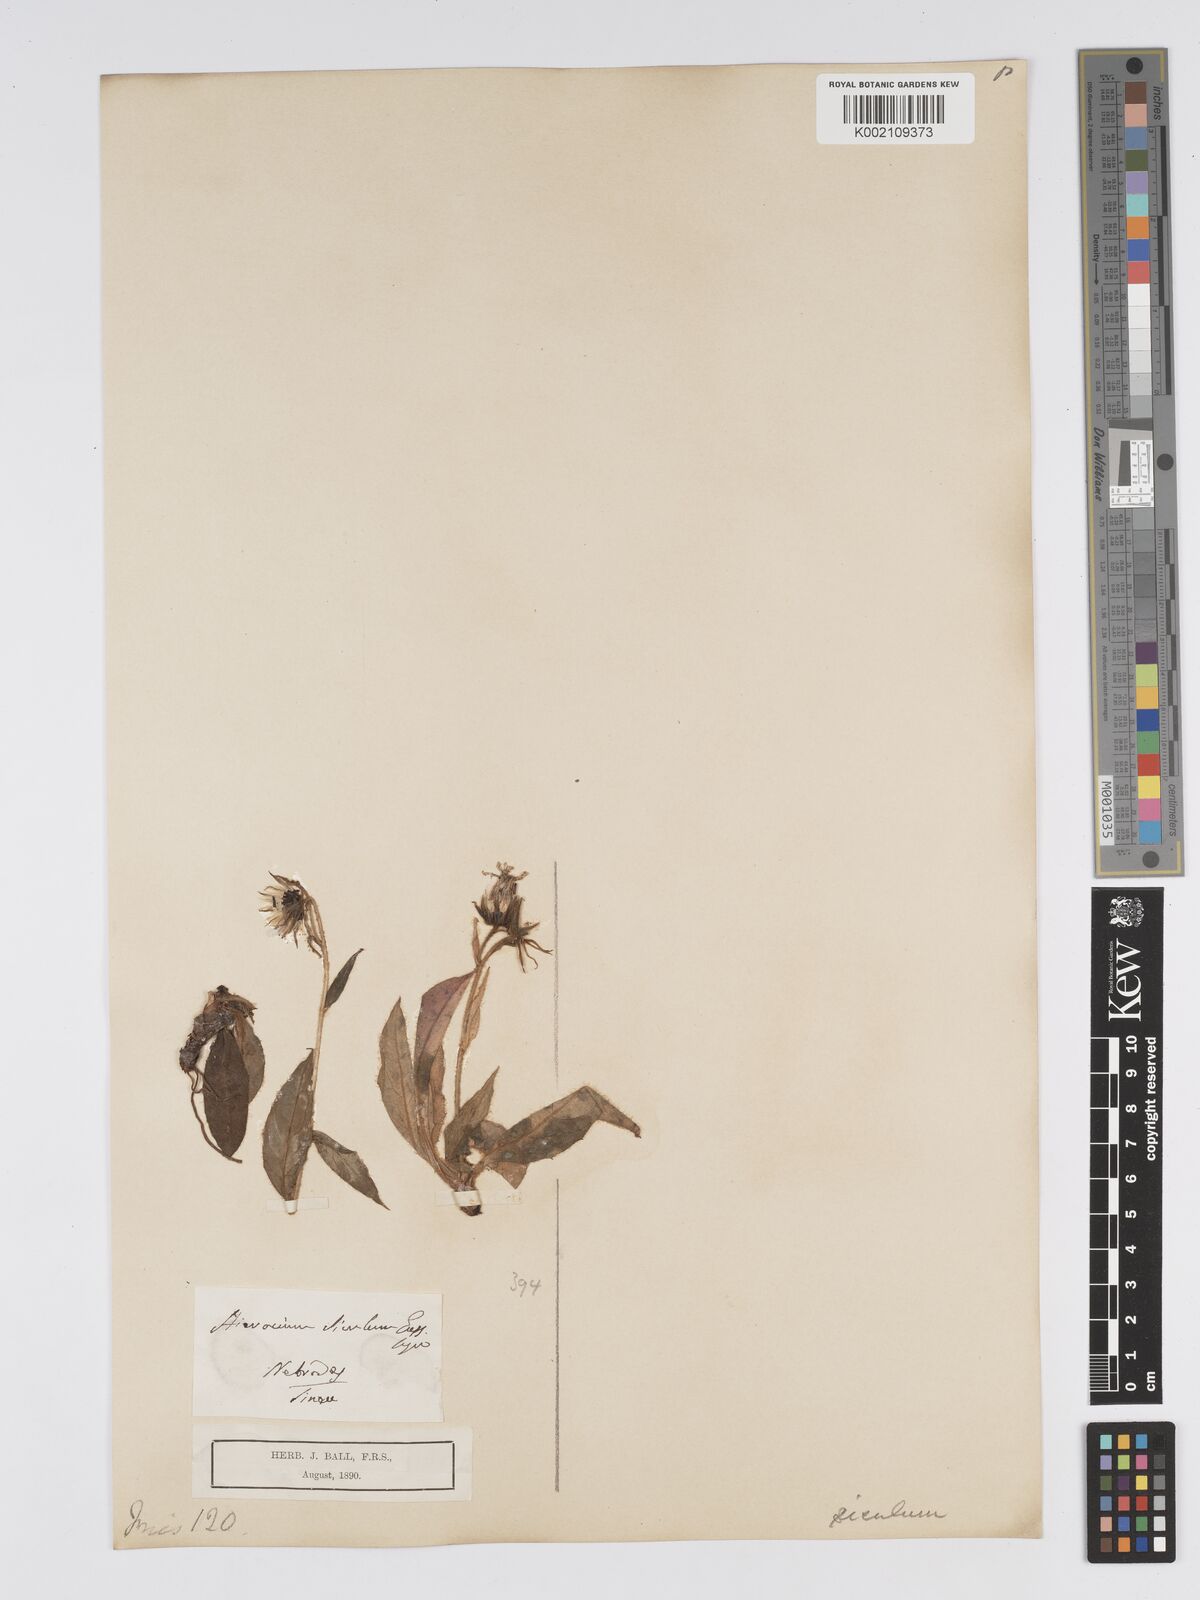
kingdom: Plantae
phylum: Tracheophyta
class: Magnoliopsida
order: Asterales
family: Asteraceae
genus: Hieracium
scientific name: Hieracium symphytifolium
